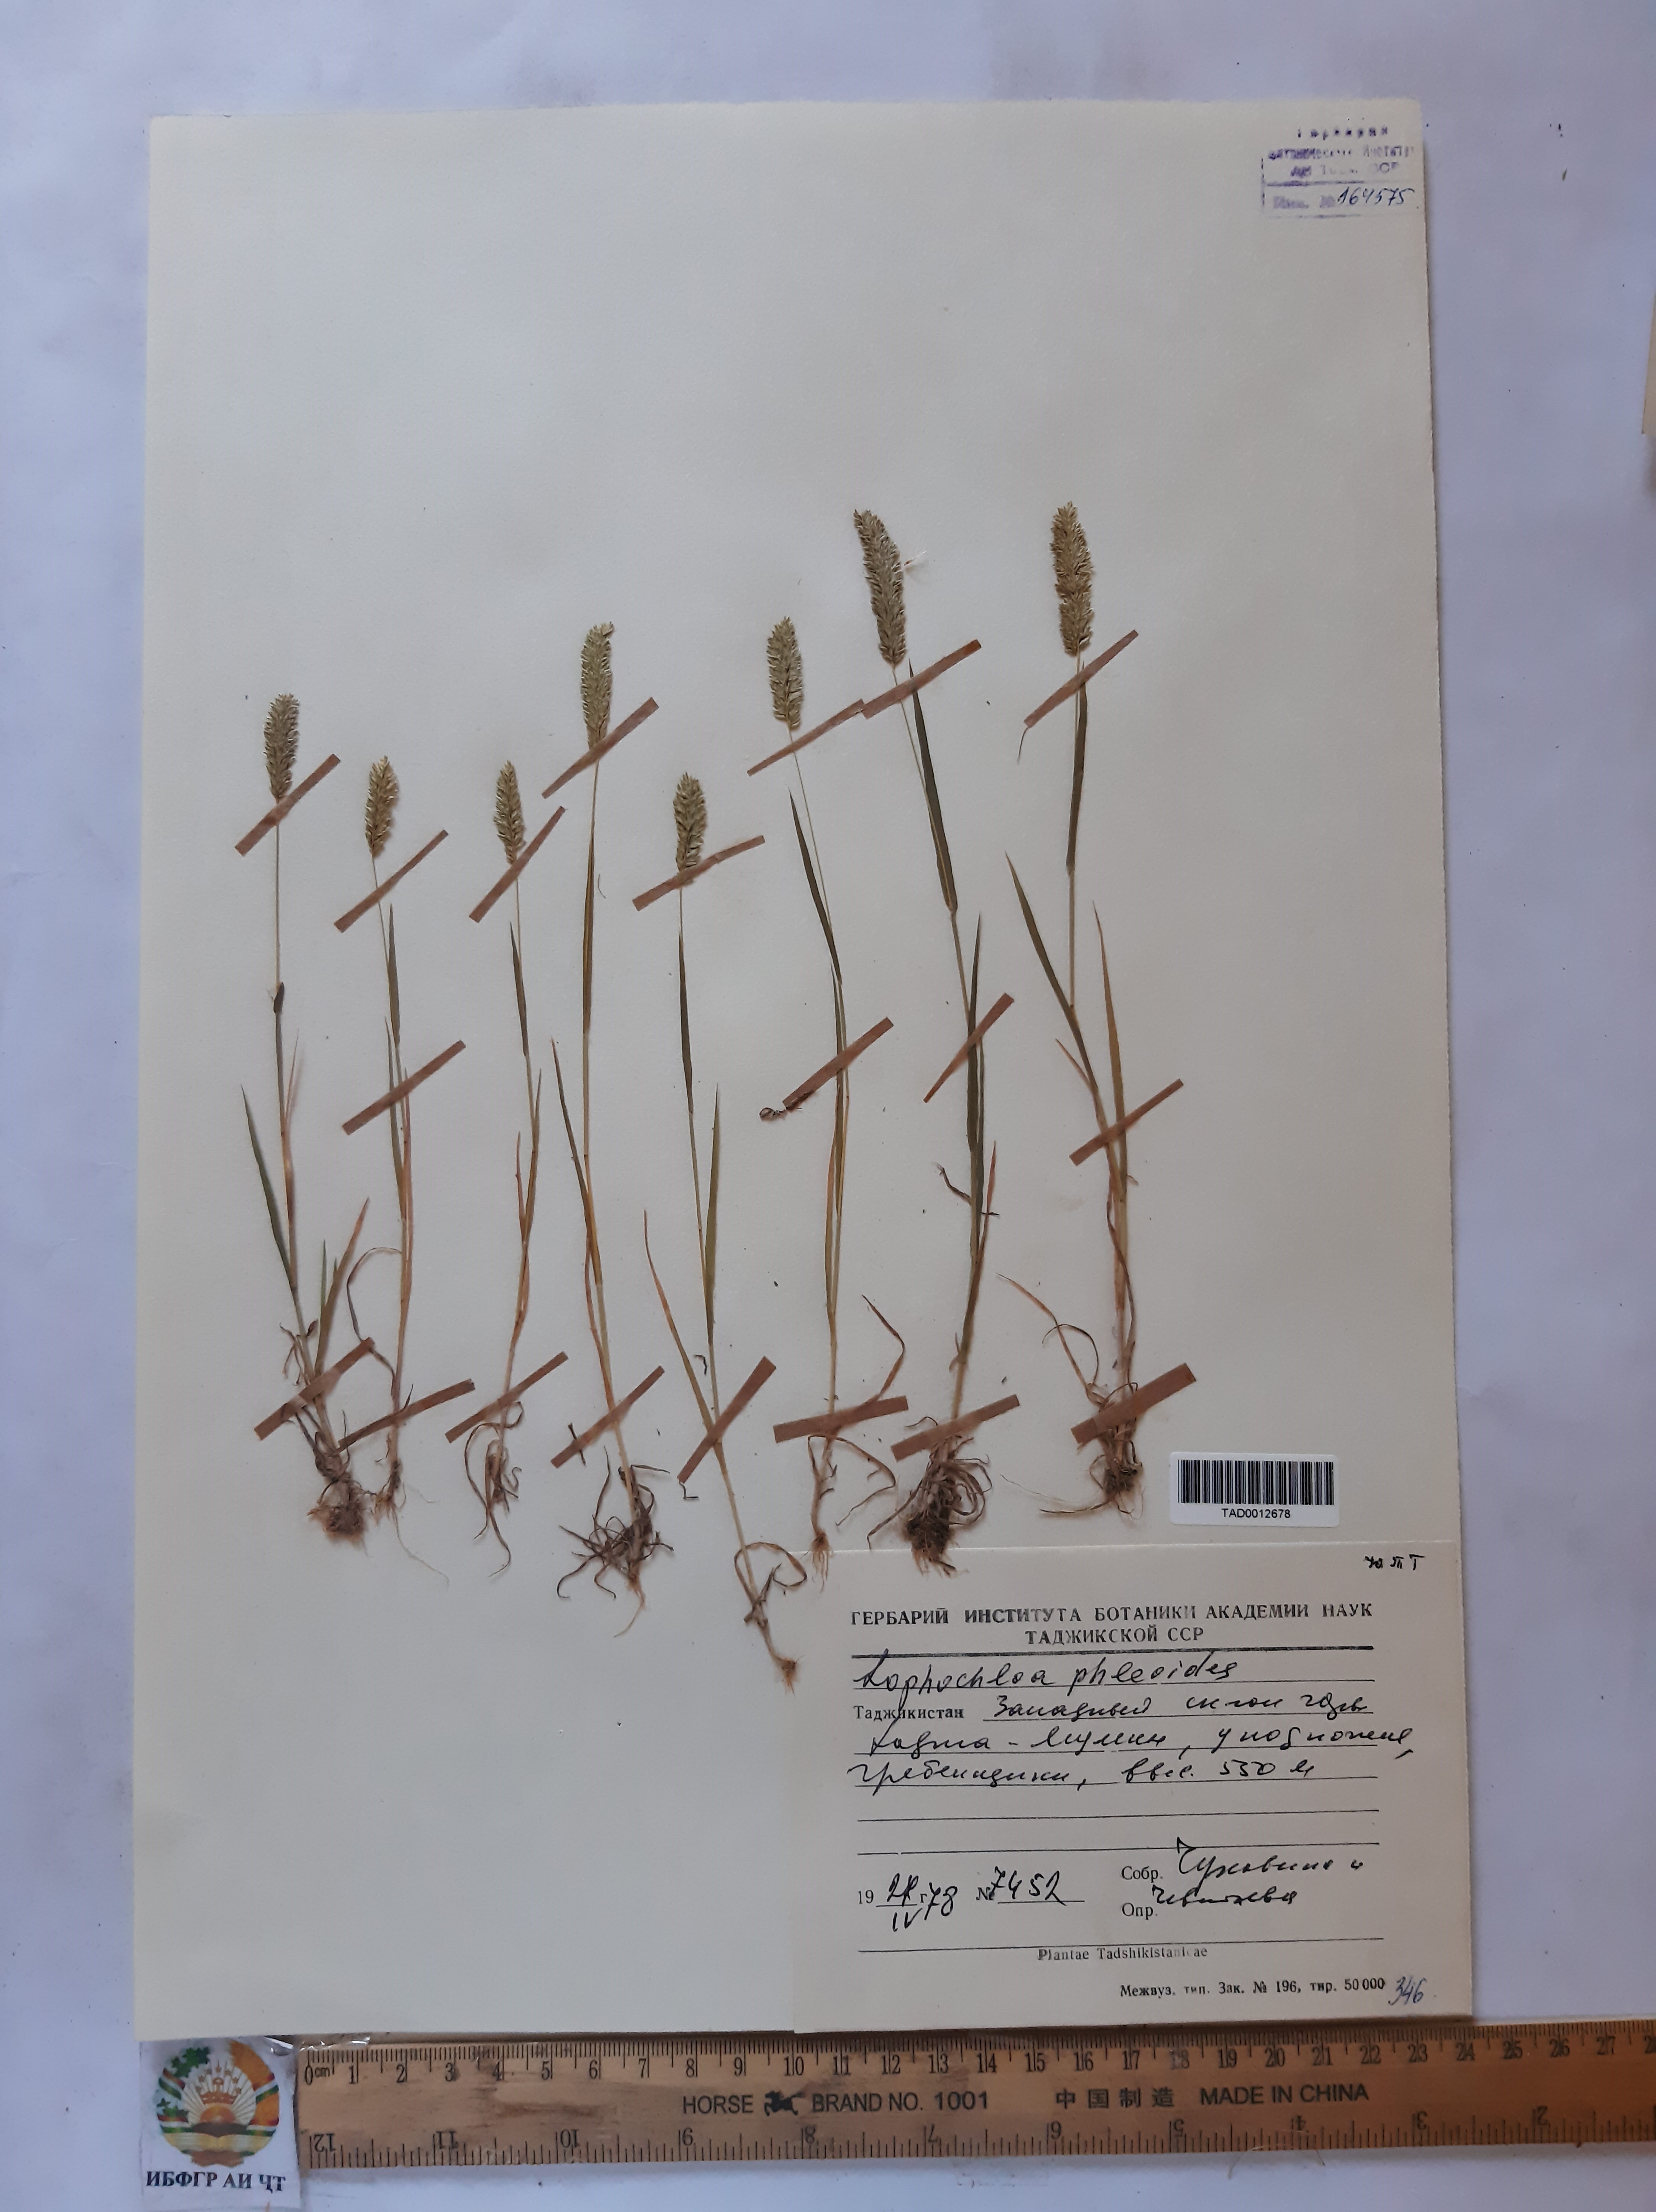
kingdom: Plantae
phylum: Tracheophyta
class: Liliopsida
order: Poales
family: Poaceae
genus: Rostraria
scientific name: Rostraria cristata
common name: Mediterranean hair-grass
